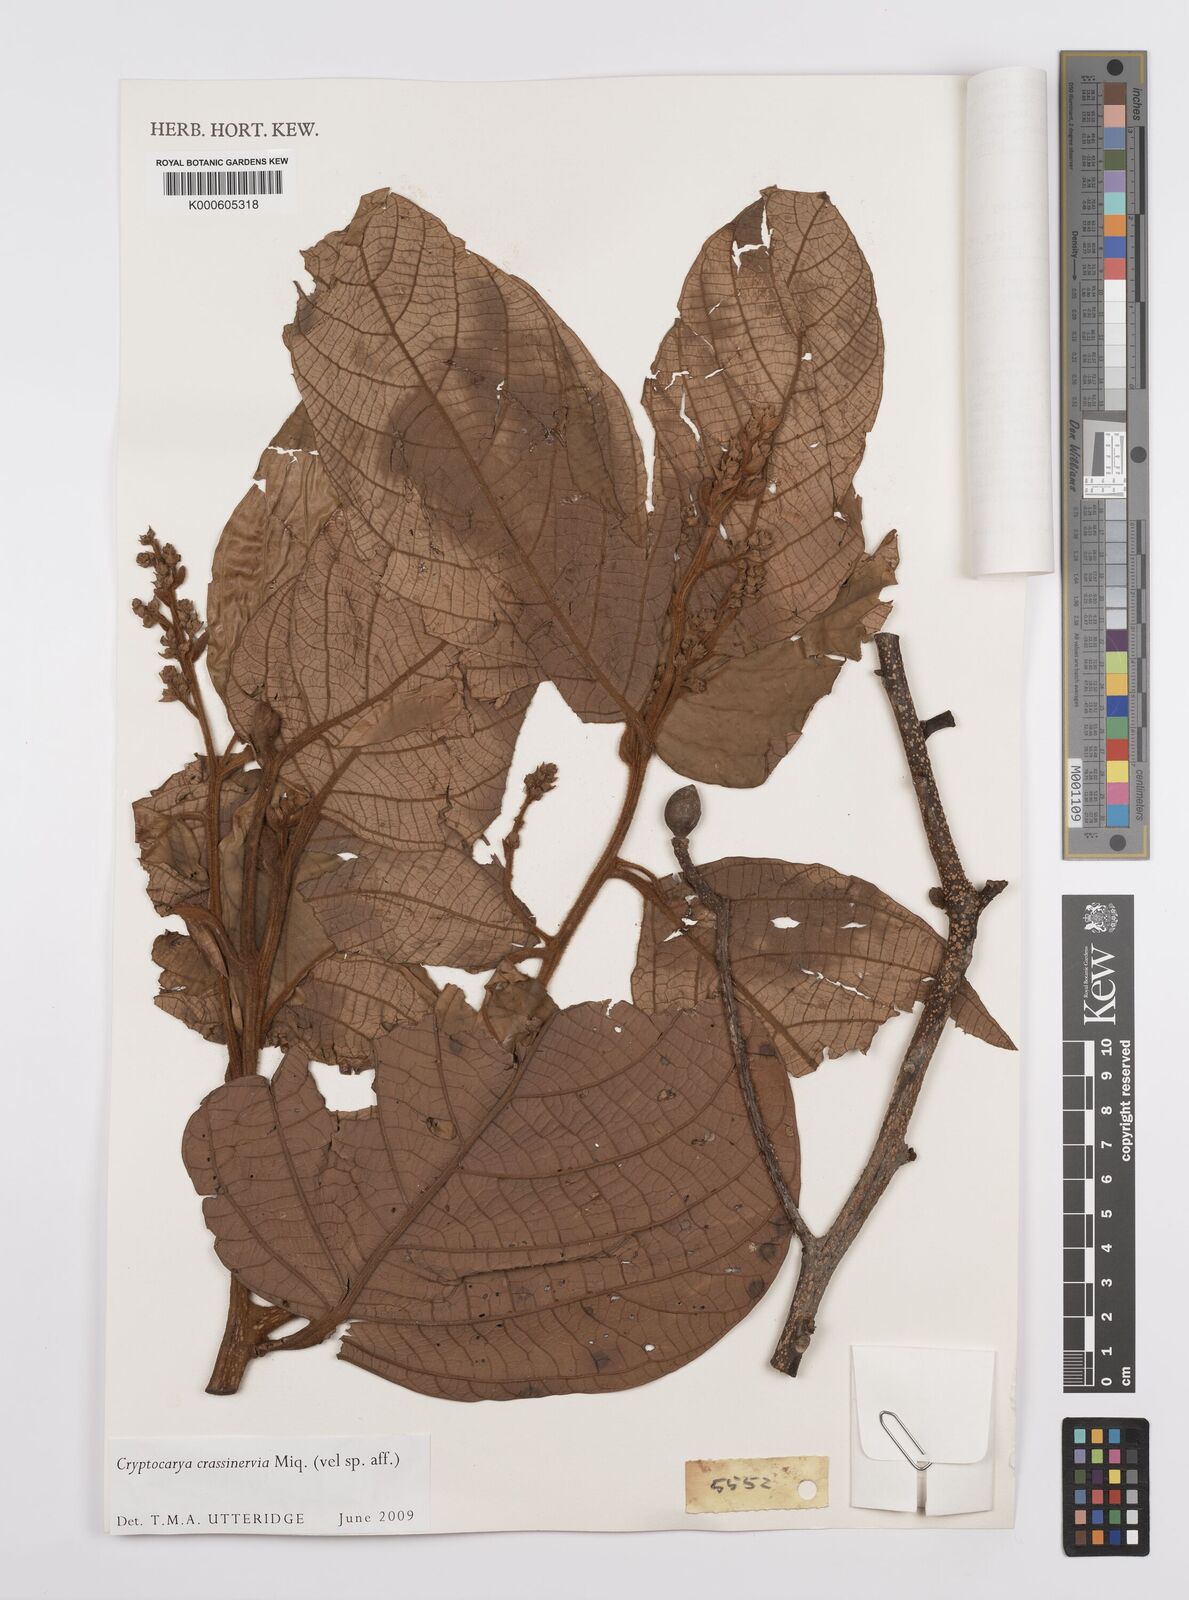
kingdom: Plantae
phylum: Tracheophyta
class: Magnoliopsida
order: Laurales
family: Lauraceae
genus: Cryptocarya
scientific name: Cryptocarya diversifolia
